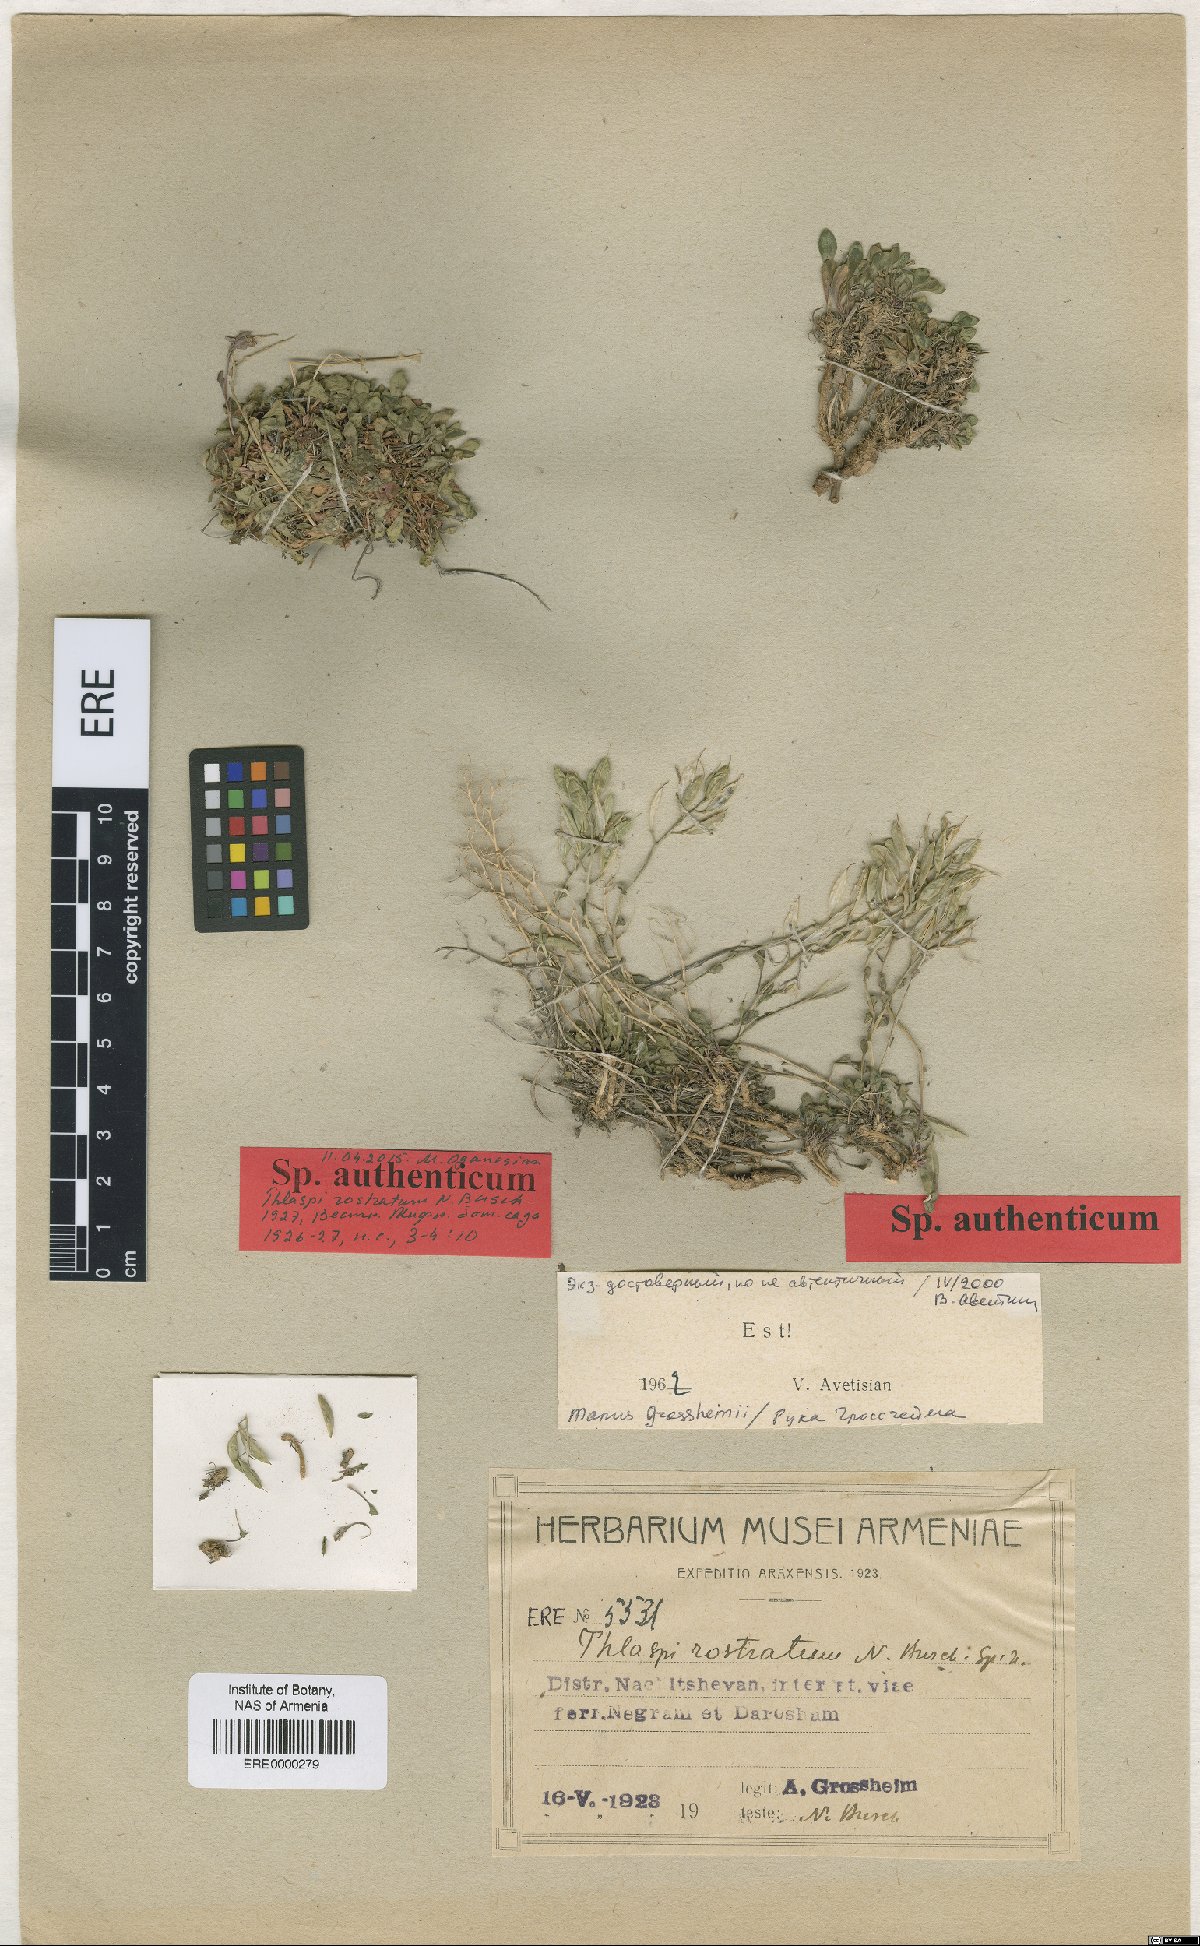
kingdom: Plantae
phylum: Tracheophyta
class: Magnoliopsida
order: Brassicales
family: Brassicaceae
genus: Noccaea
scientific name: Noccaea rostrata
